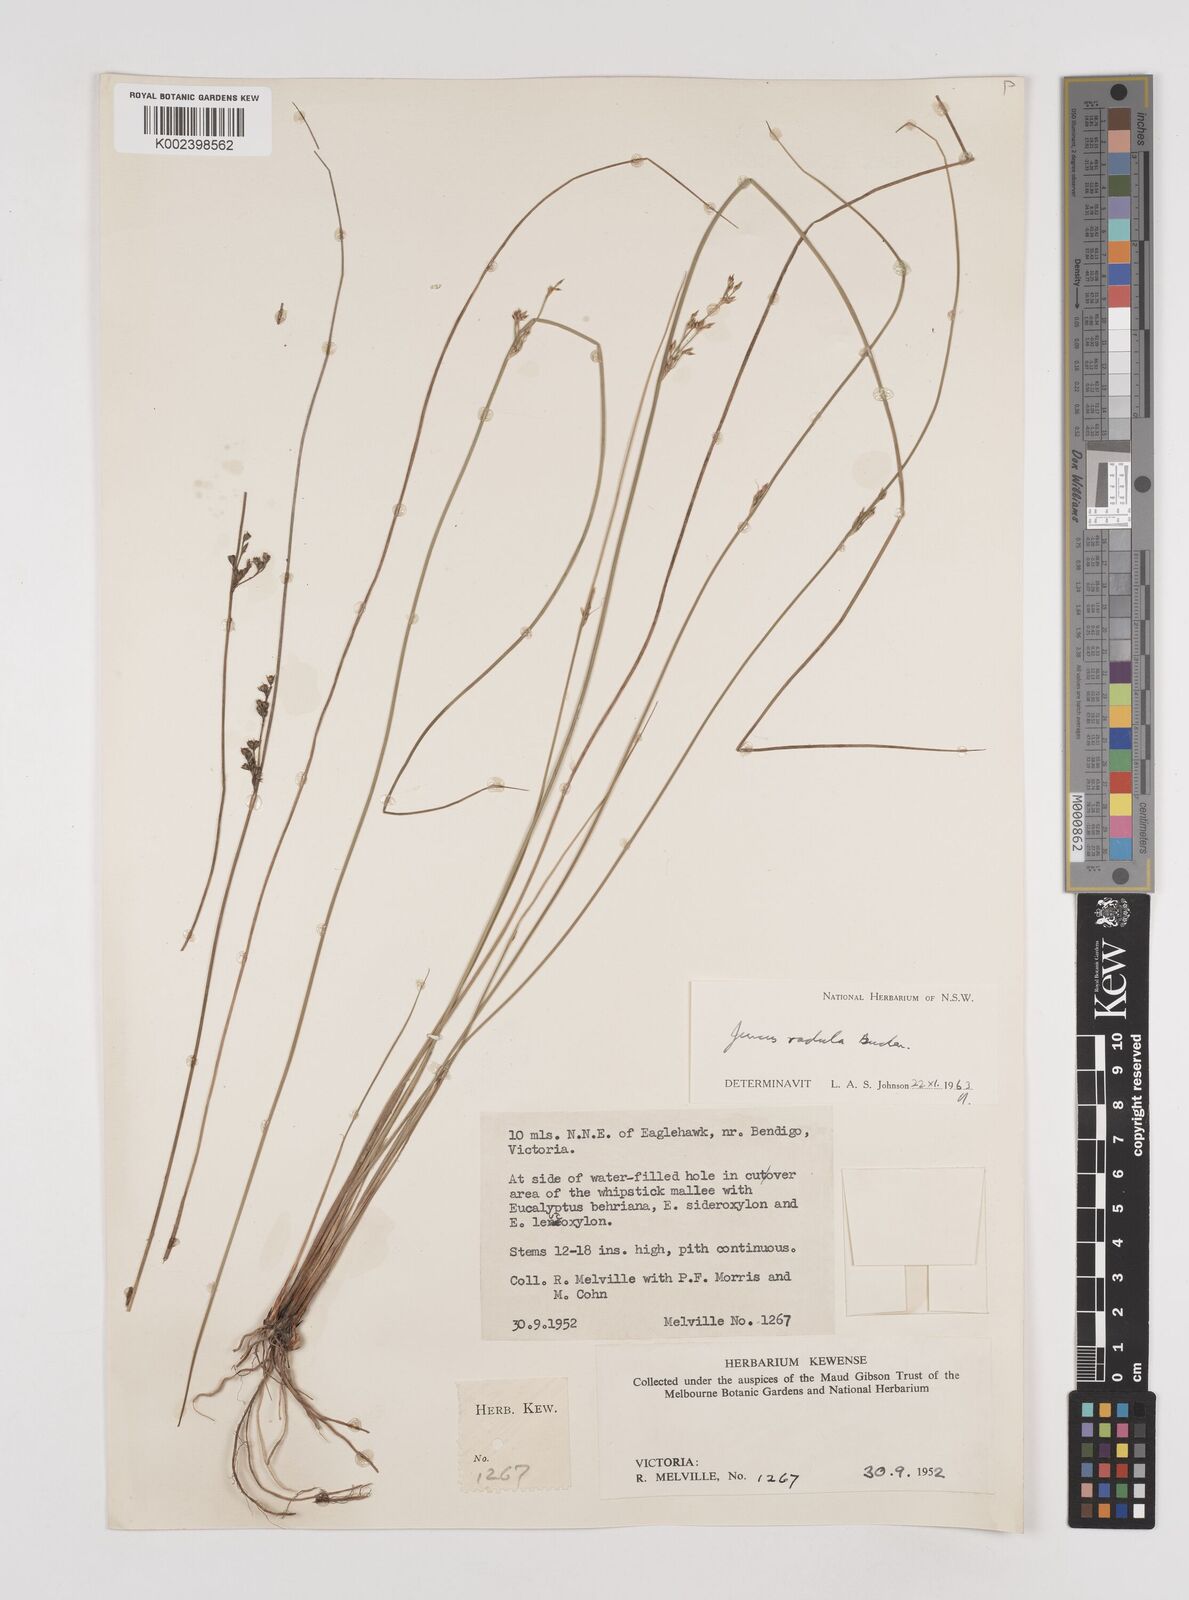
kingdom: Plantae
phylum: Tracheophyta
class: Liliopsida
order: Poales
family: Juncaceae
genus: Juncus
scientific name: Juncus radula
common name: Hoary rush
